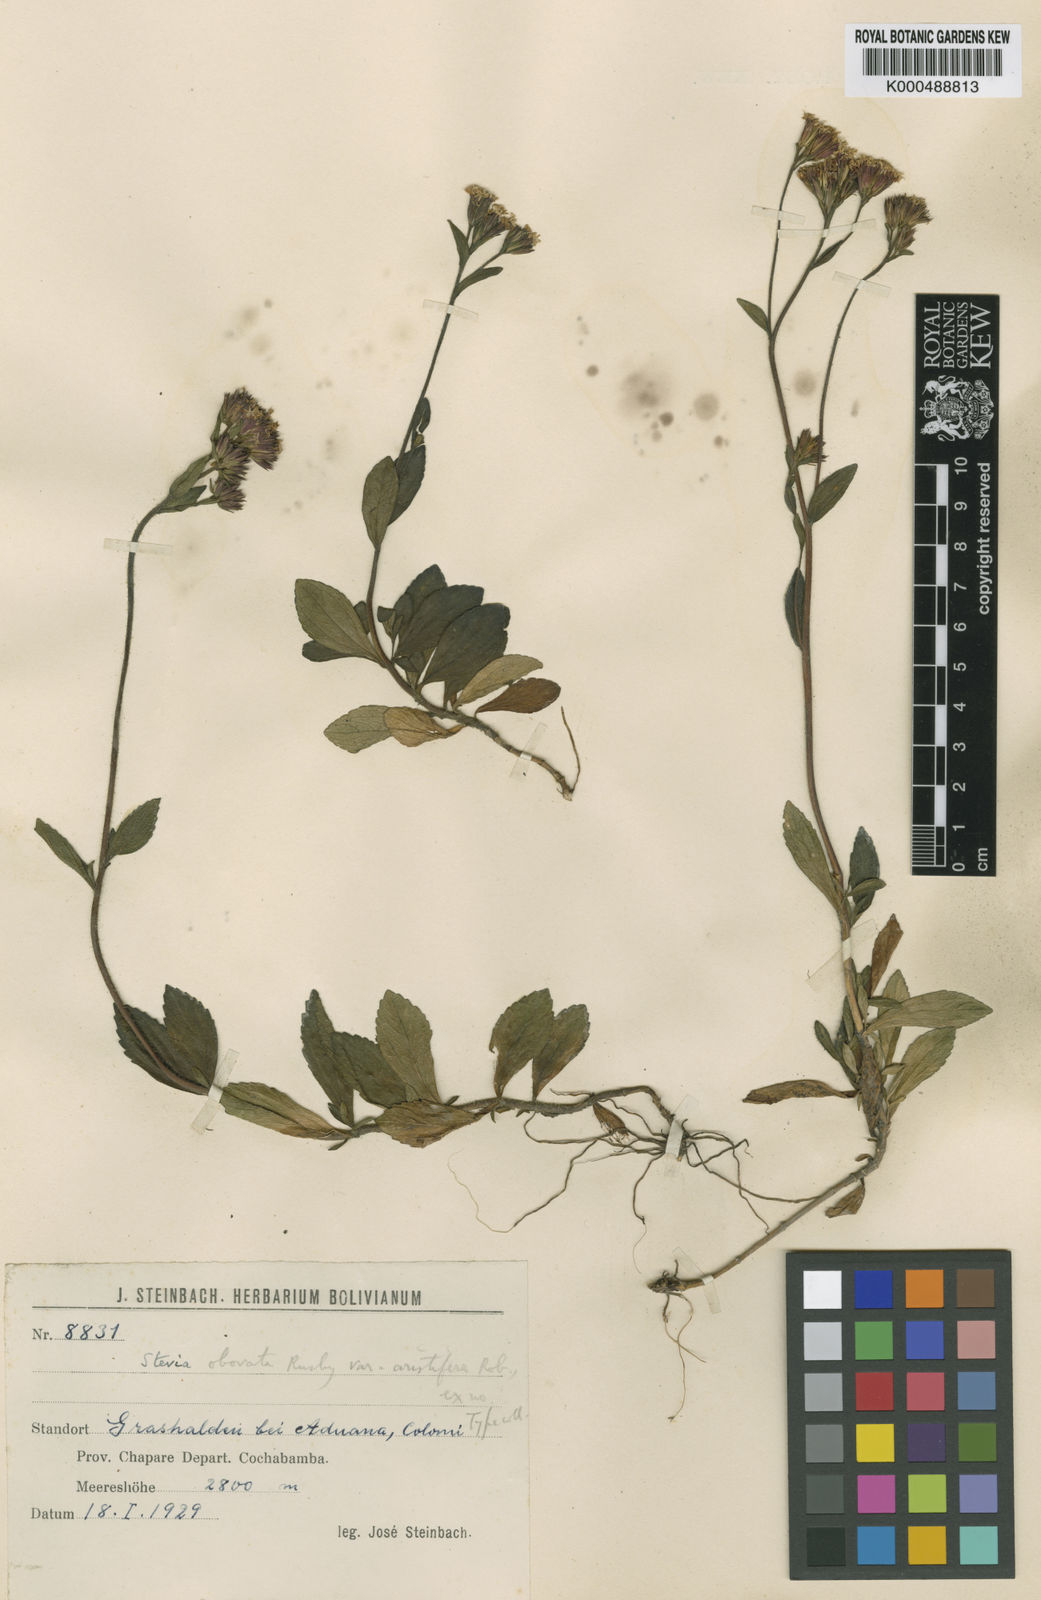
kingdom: Plantae
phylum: Tracheophyta
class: Magnoliopsida
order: Asterales
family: Asteraceae
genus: Stevia
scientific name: Stevia obovata
